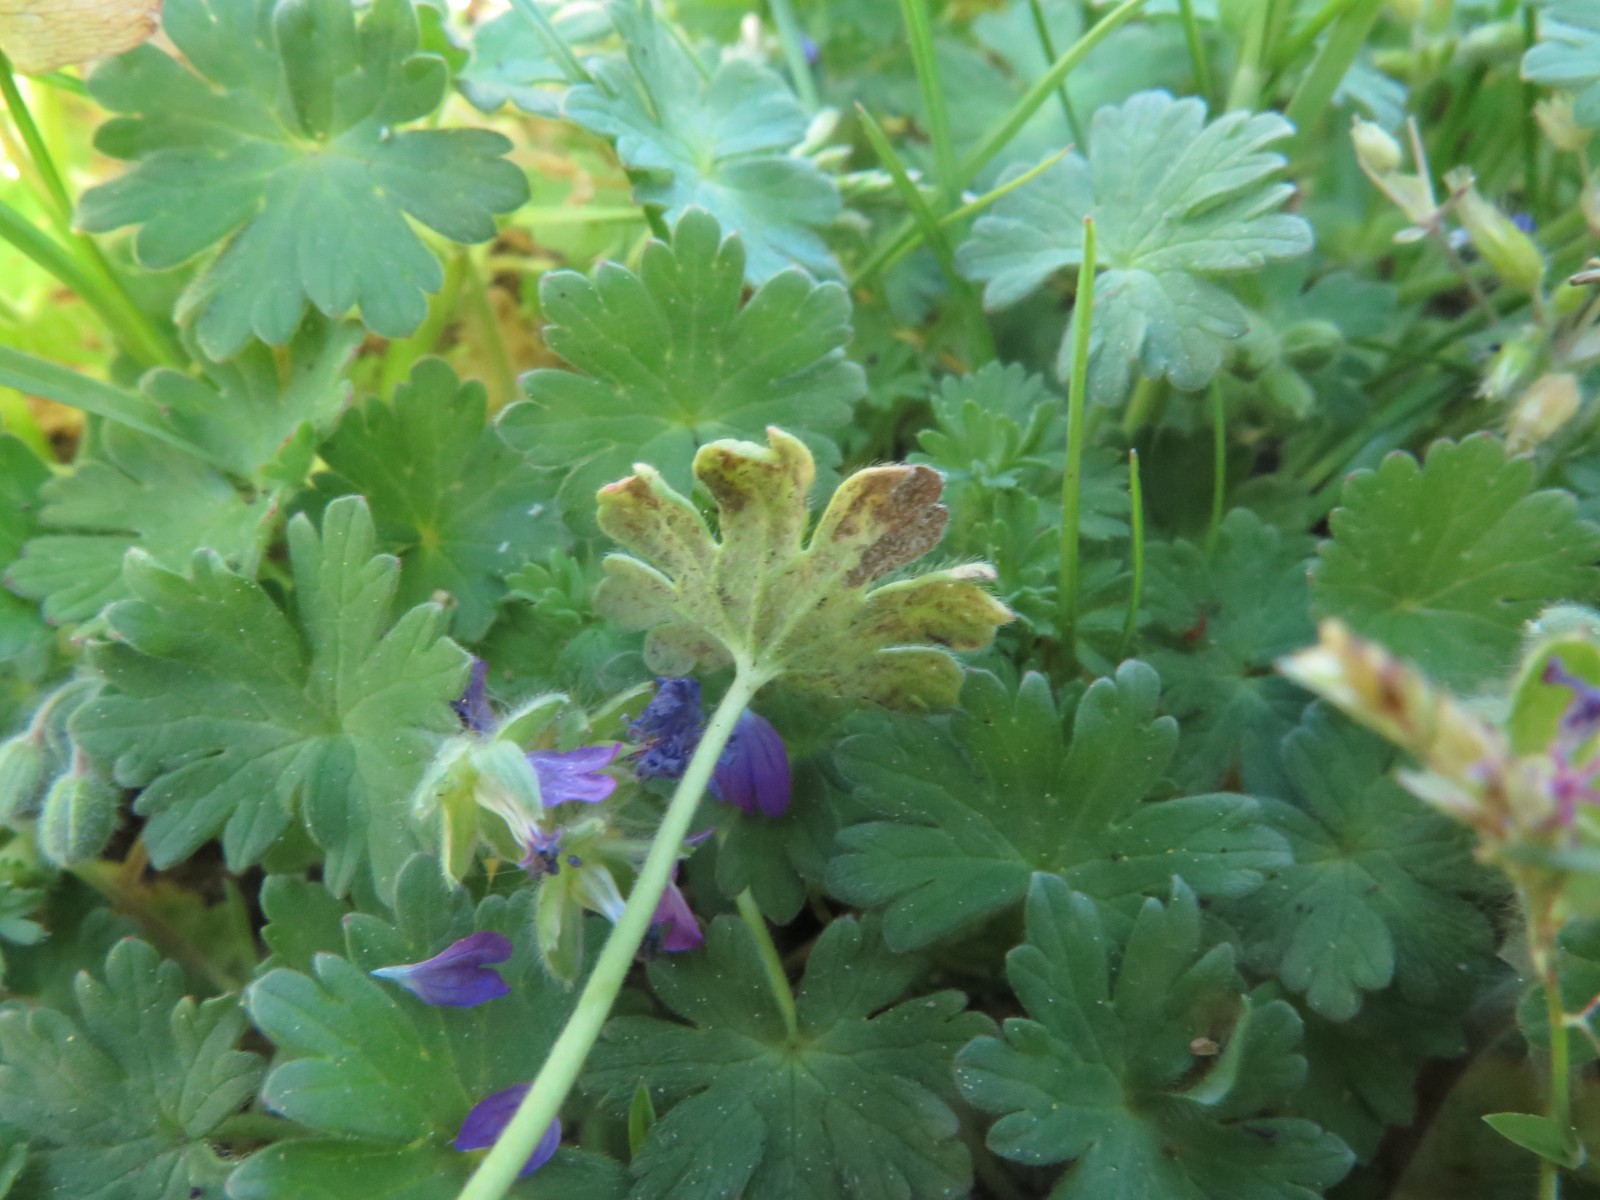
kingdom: Chromista
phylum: Oomycota
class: Peronosporea
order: Peronosporales
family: Peronosporaceae
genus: Peronospora
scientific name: Peronospora conglomerata
